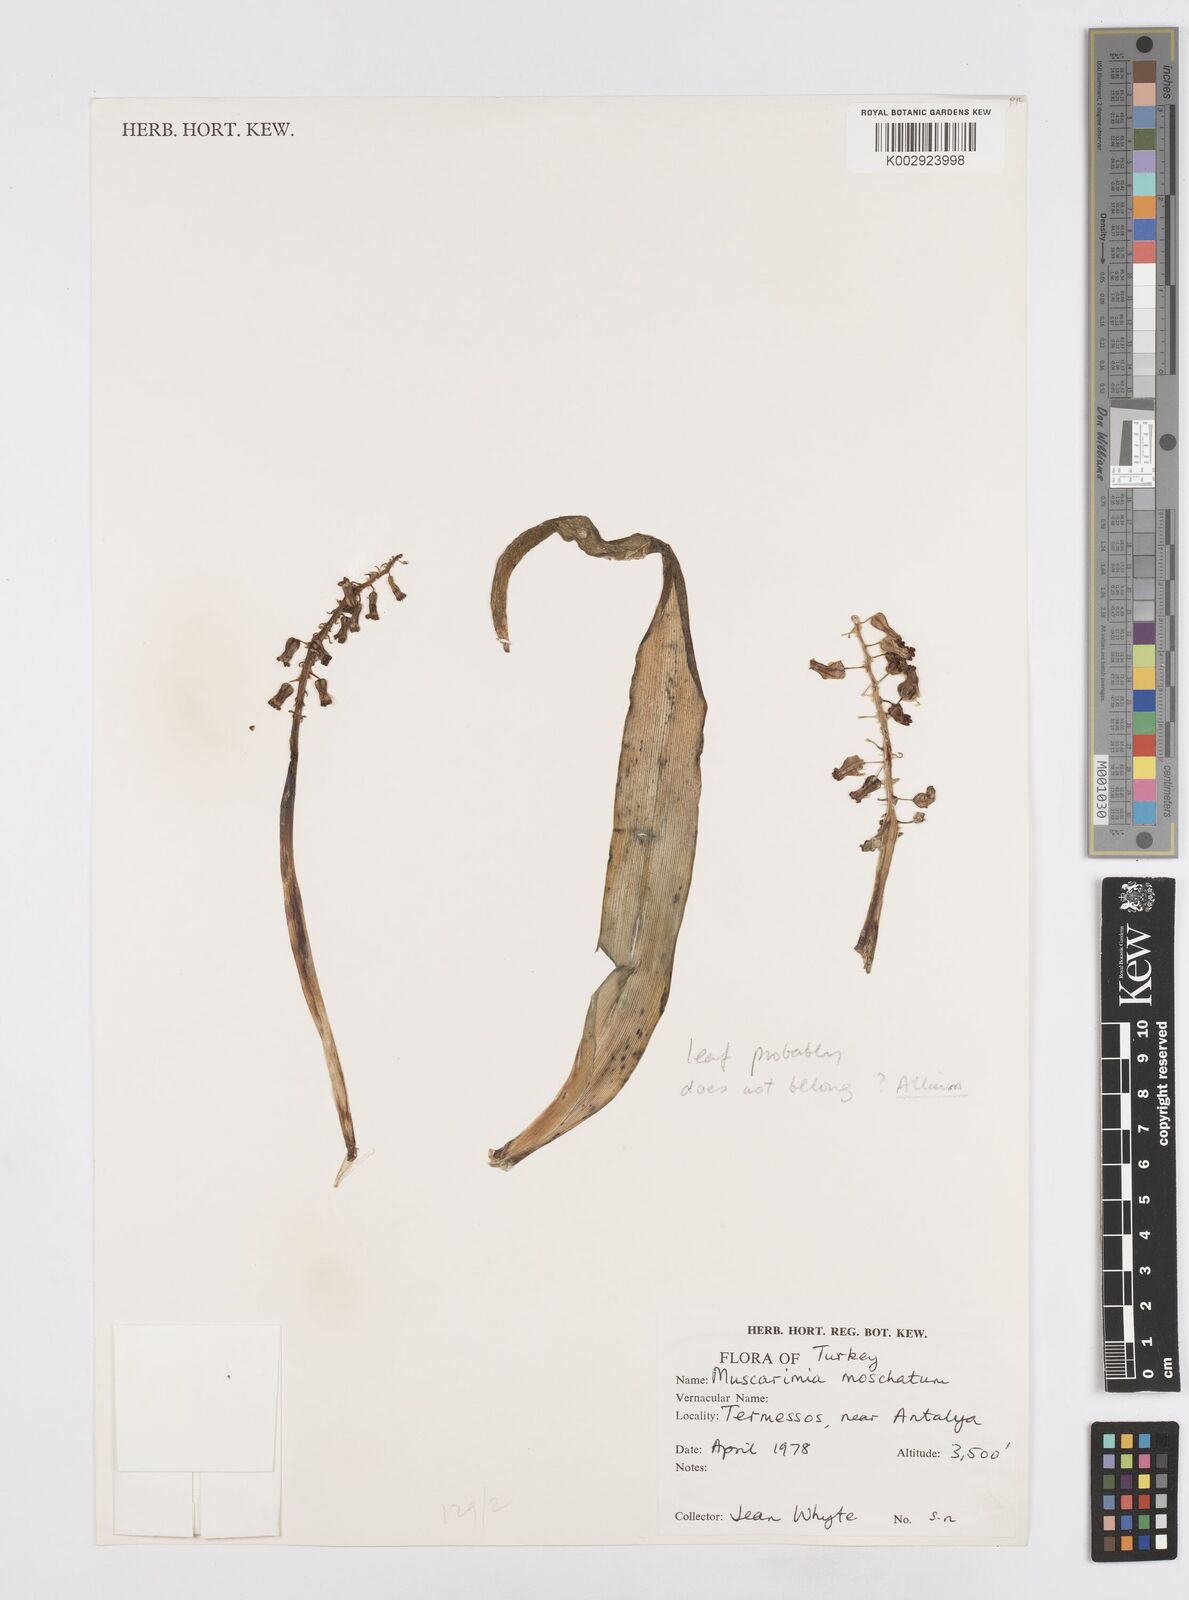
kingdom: Plantae
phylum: Tracheophyta
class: Liliopsida
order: Asparagales
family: Asparagaceae
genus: Muscari
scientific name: Muscari
